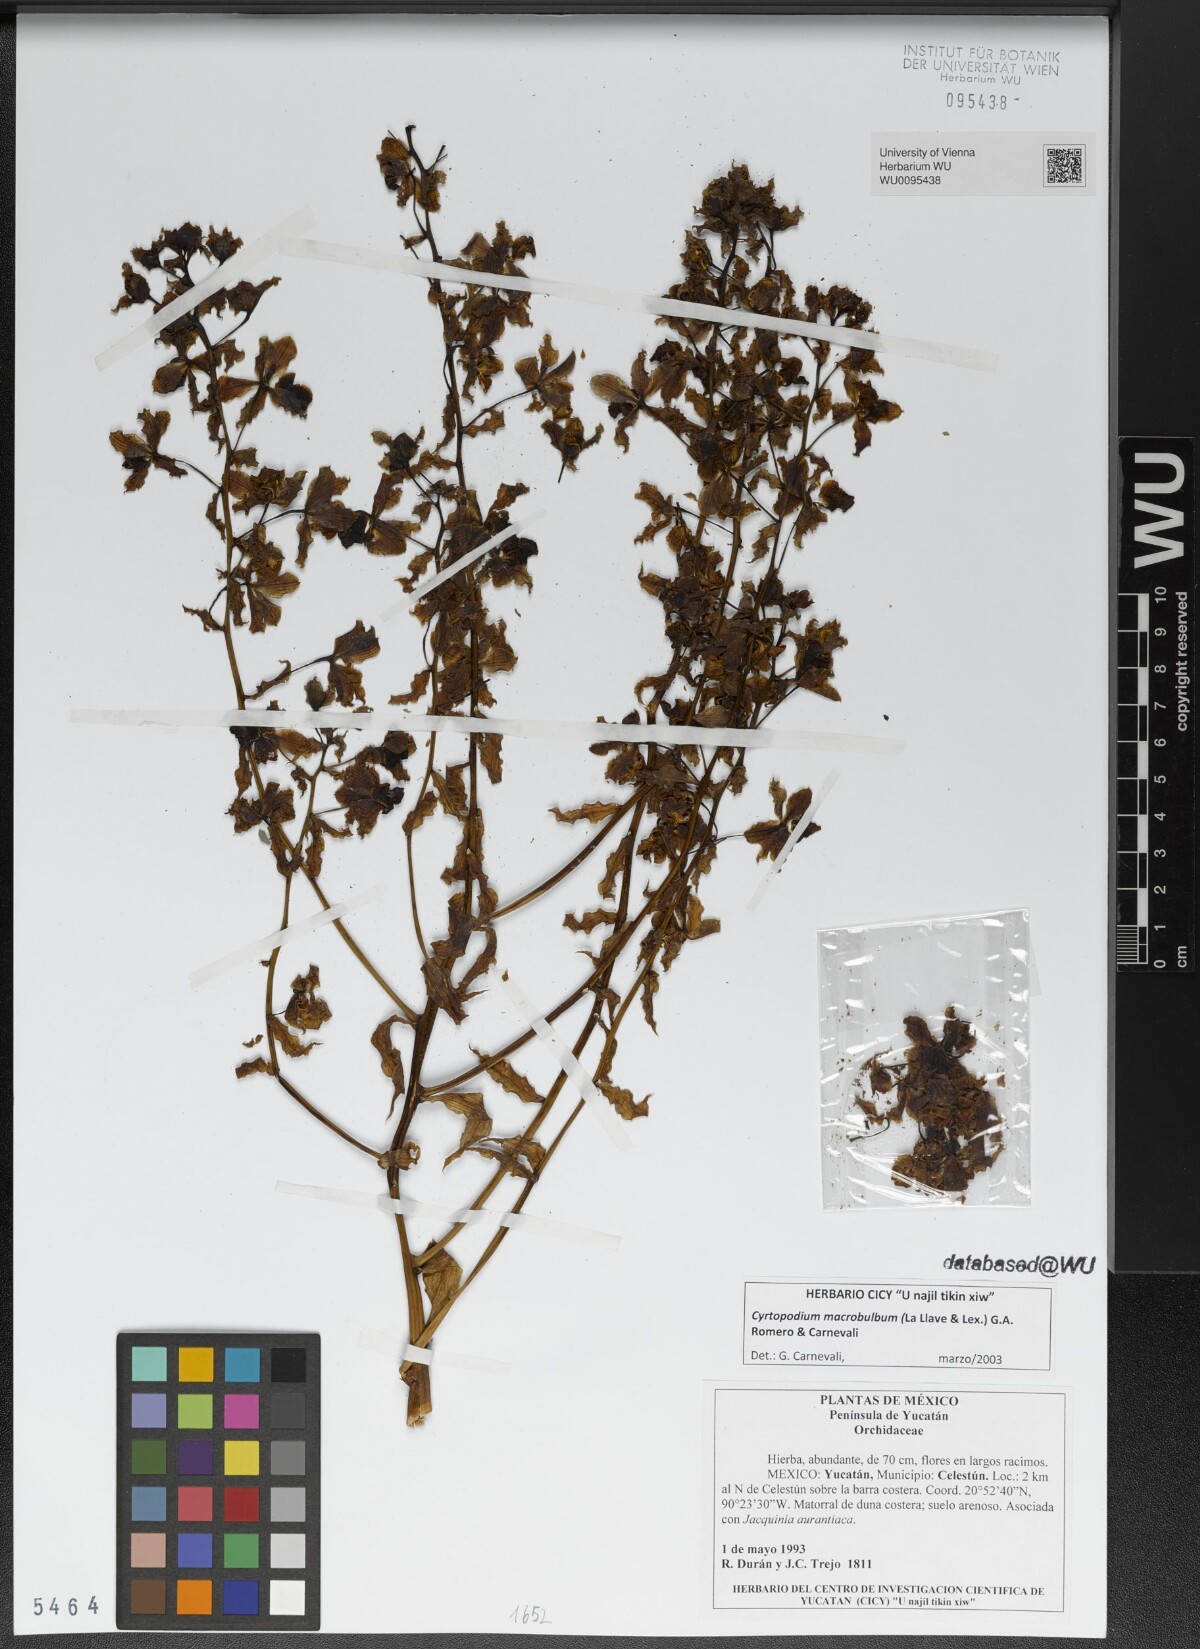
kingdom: Plantae
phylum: Tracheophyta
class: Liliopsida
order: Asparagales
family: Orchidaceae
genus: Cyrtopodium
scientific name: Cyrtopodium macrobulbon
